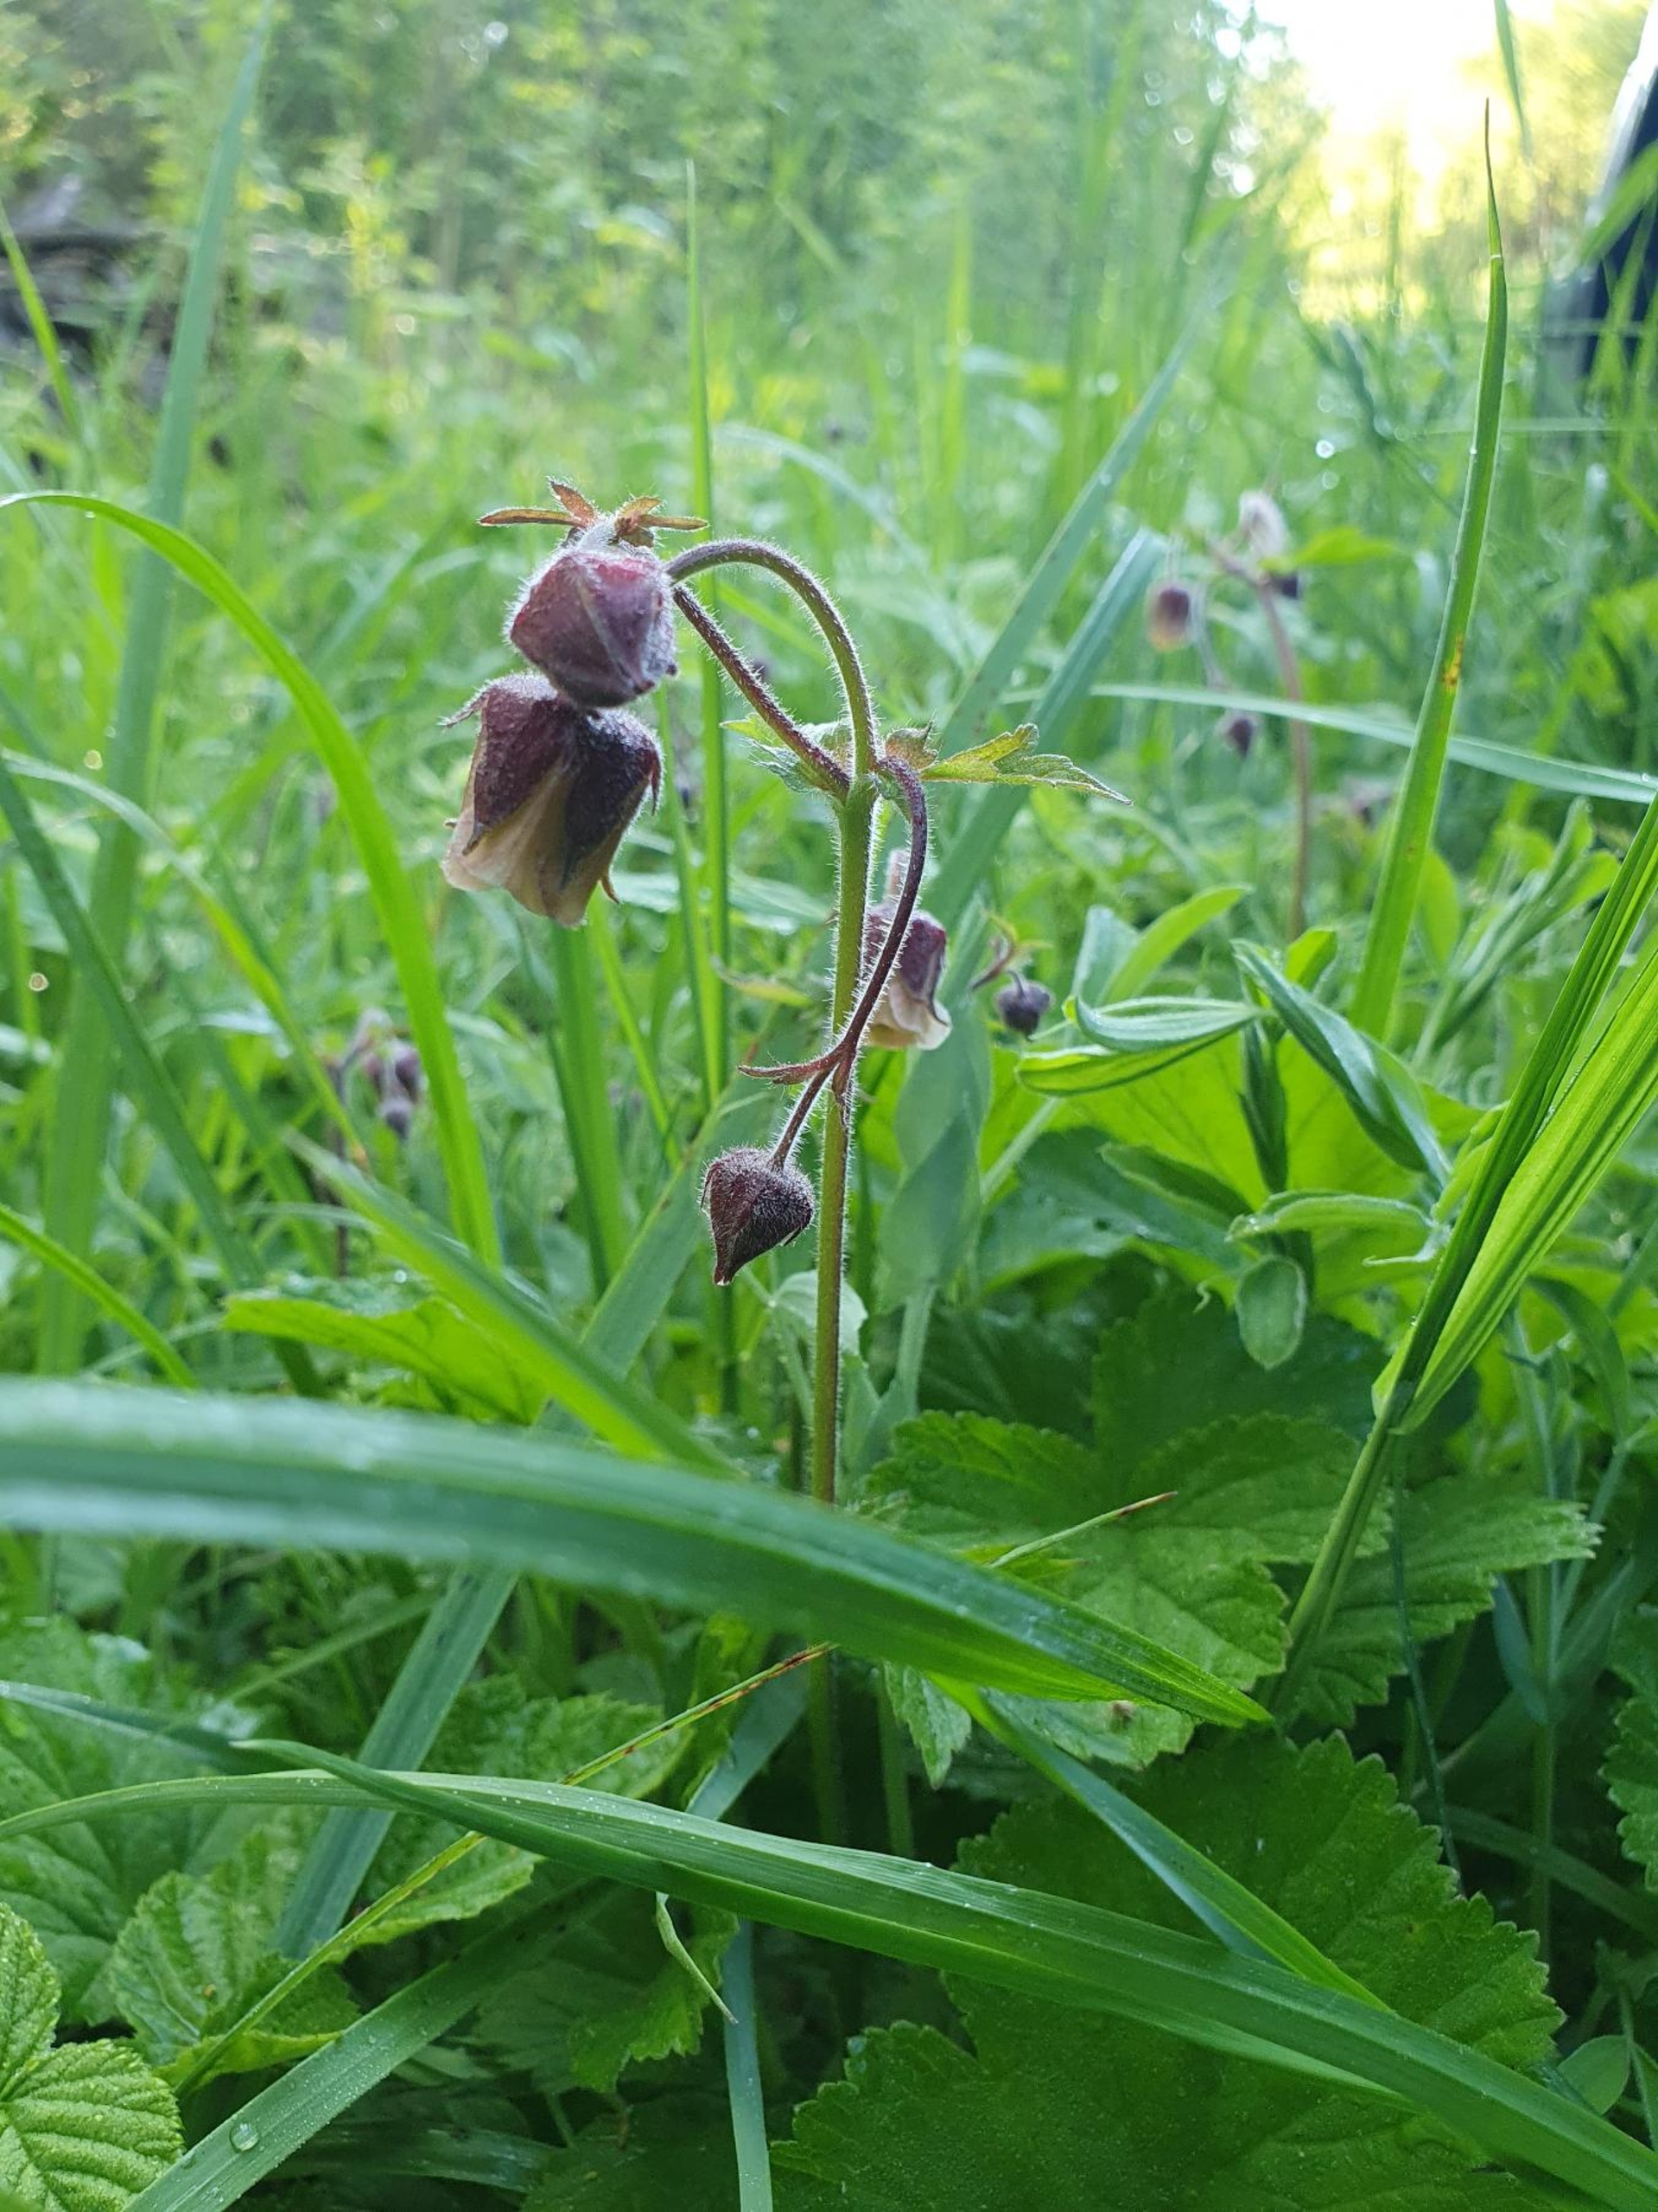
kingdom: Plantae
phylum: Tracheophyta
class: Magnoliopsida
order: Rosales
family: Rosaceae
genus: Geum
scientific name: Geum rivale
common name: Eng-nellikerod
